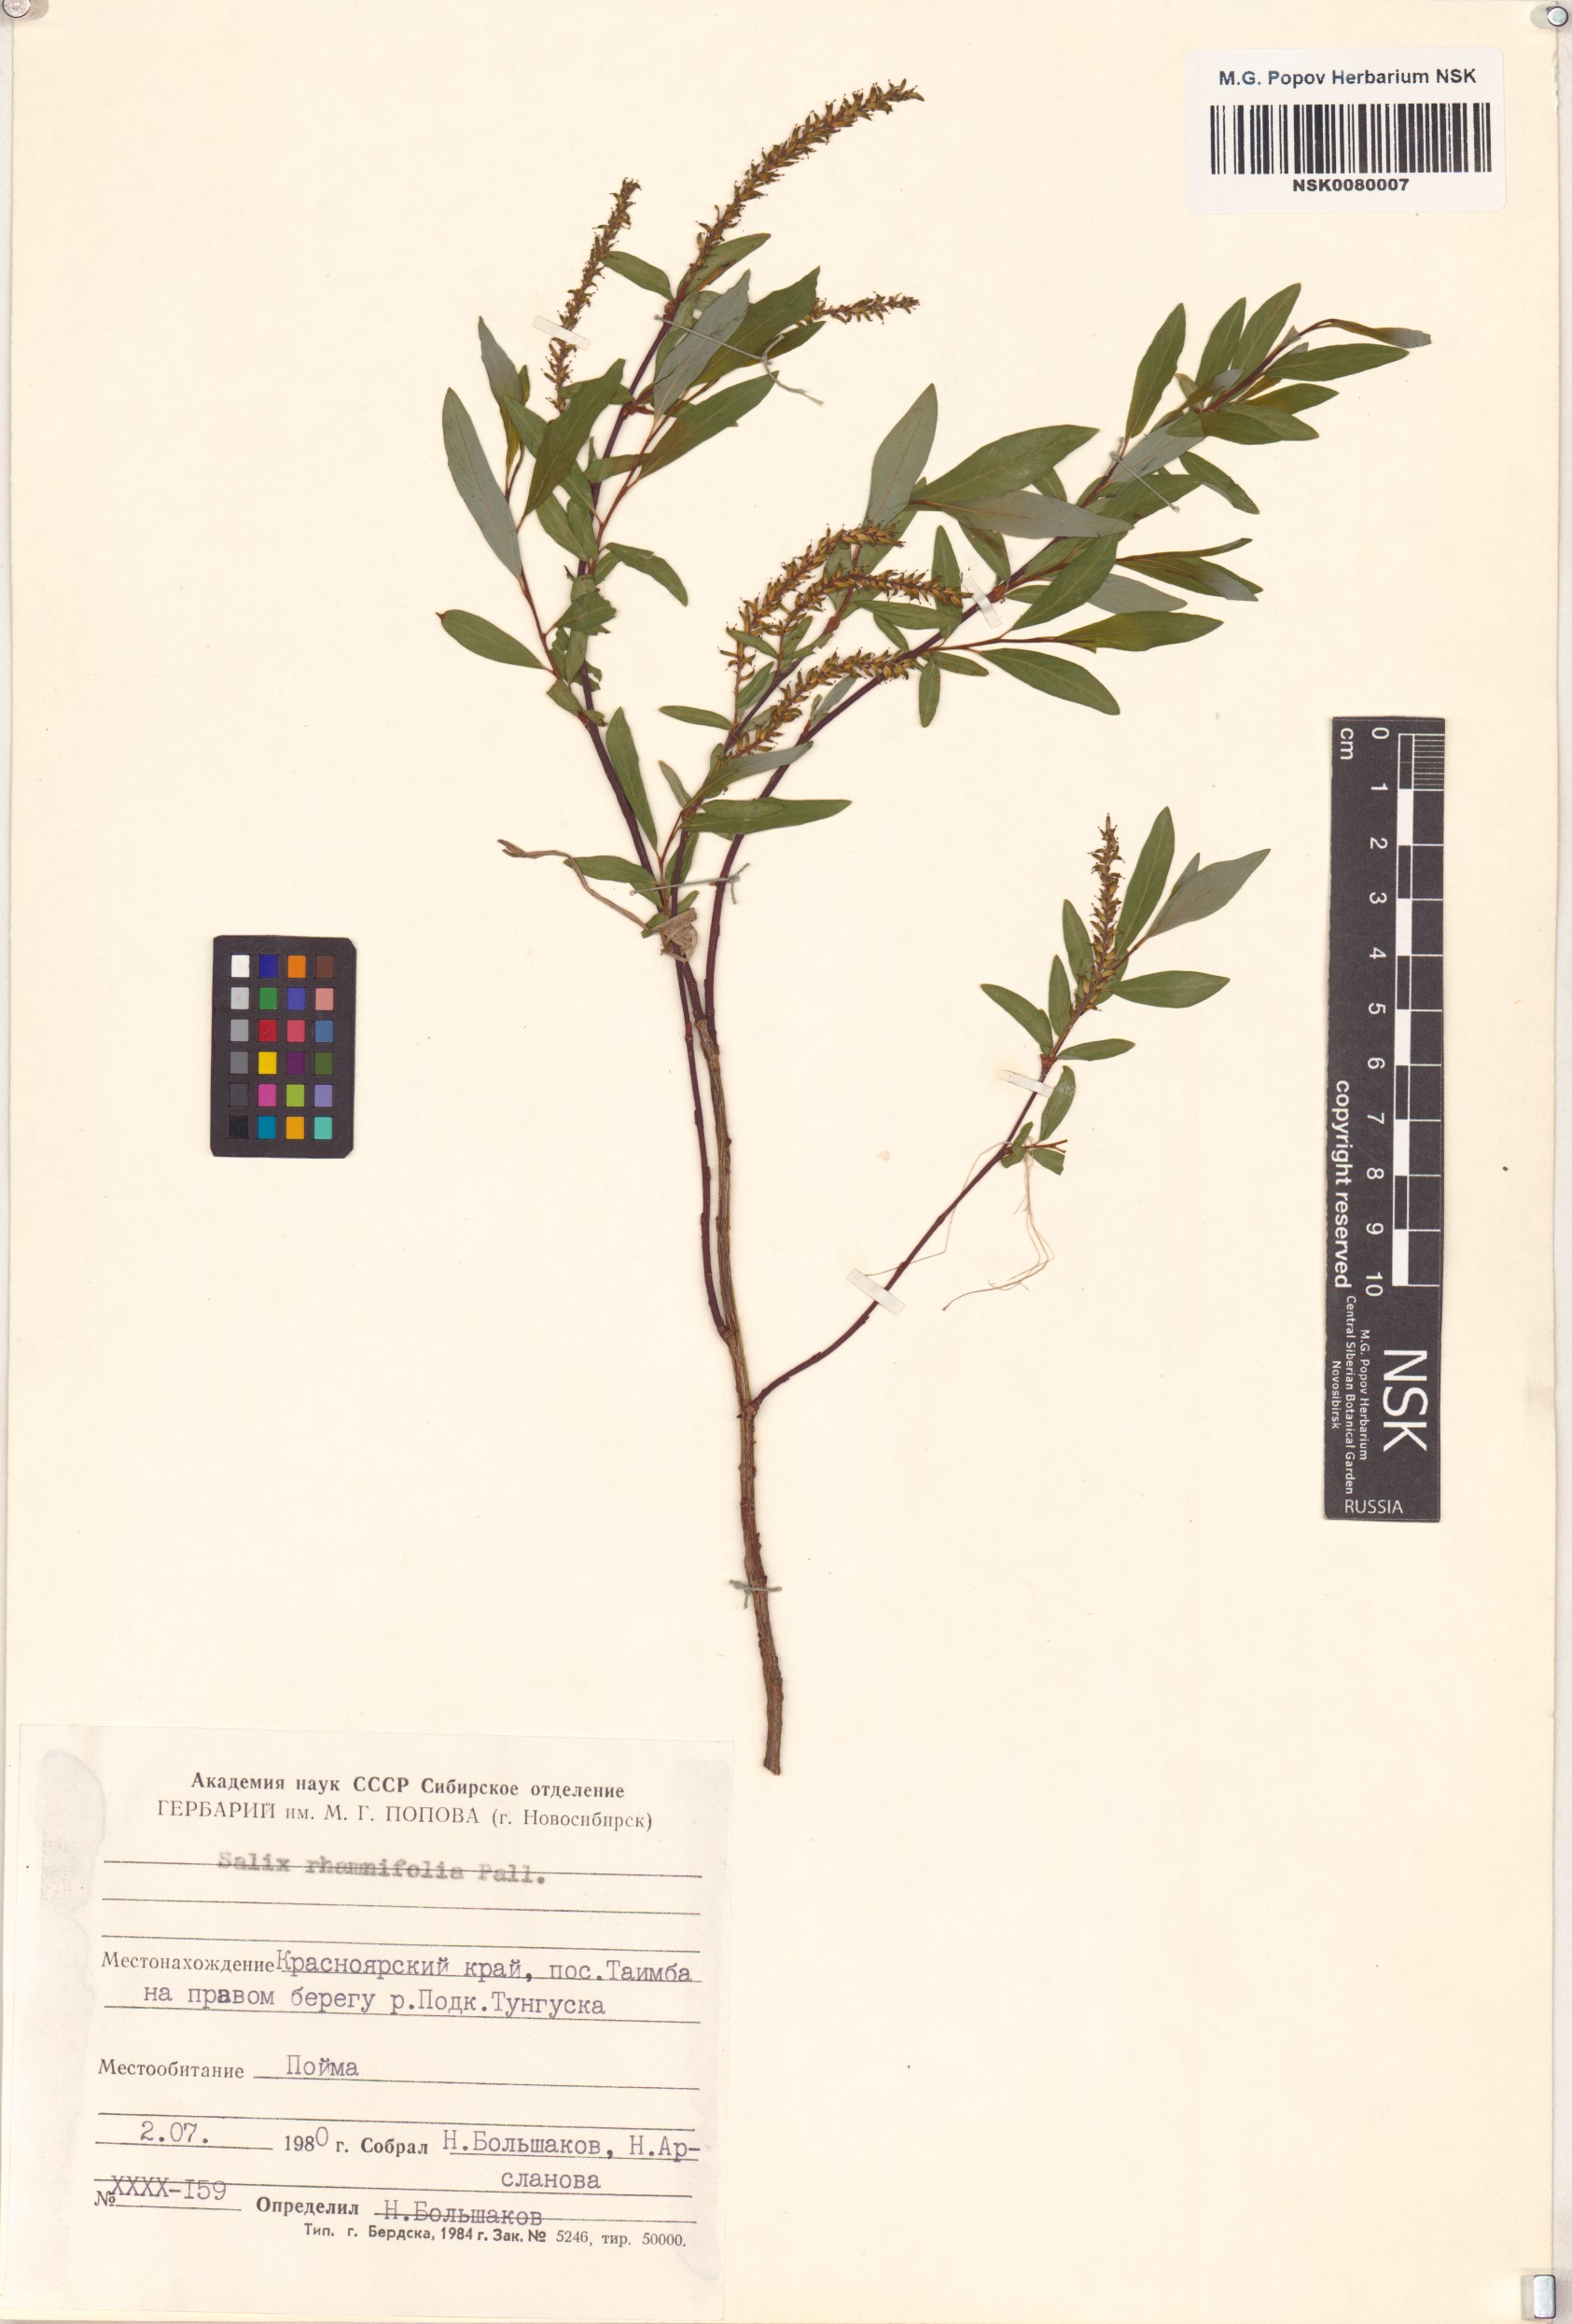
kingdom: Plantae
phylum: Tracheophyta
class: Magnoliopsida
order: Malpighiales
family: Salicaceae
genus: Salix
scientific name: Salix rhamnifolia
